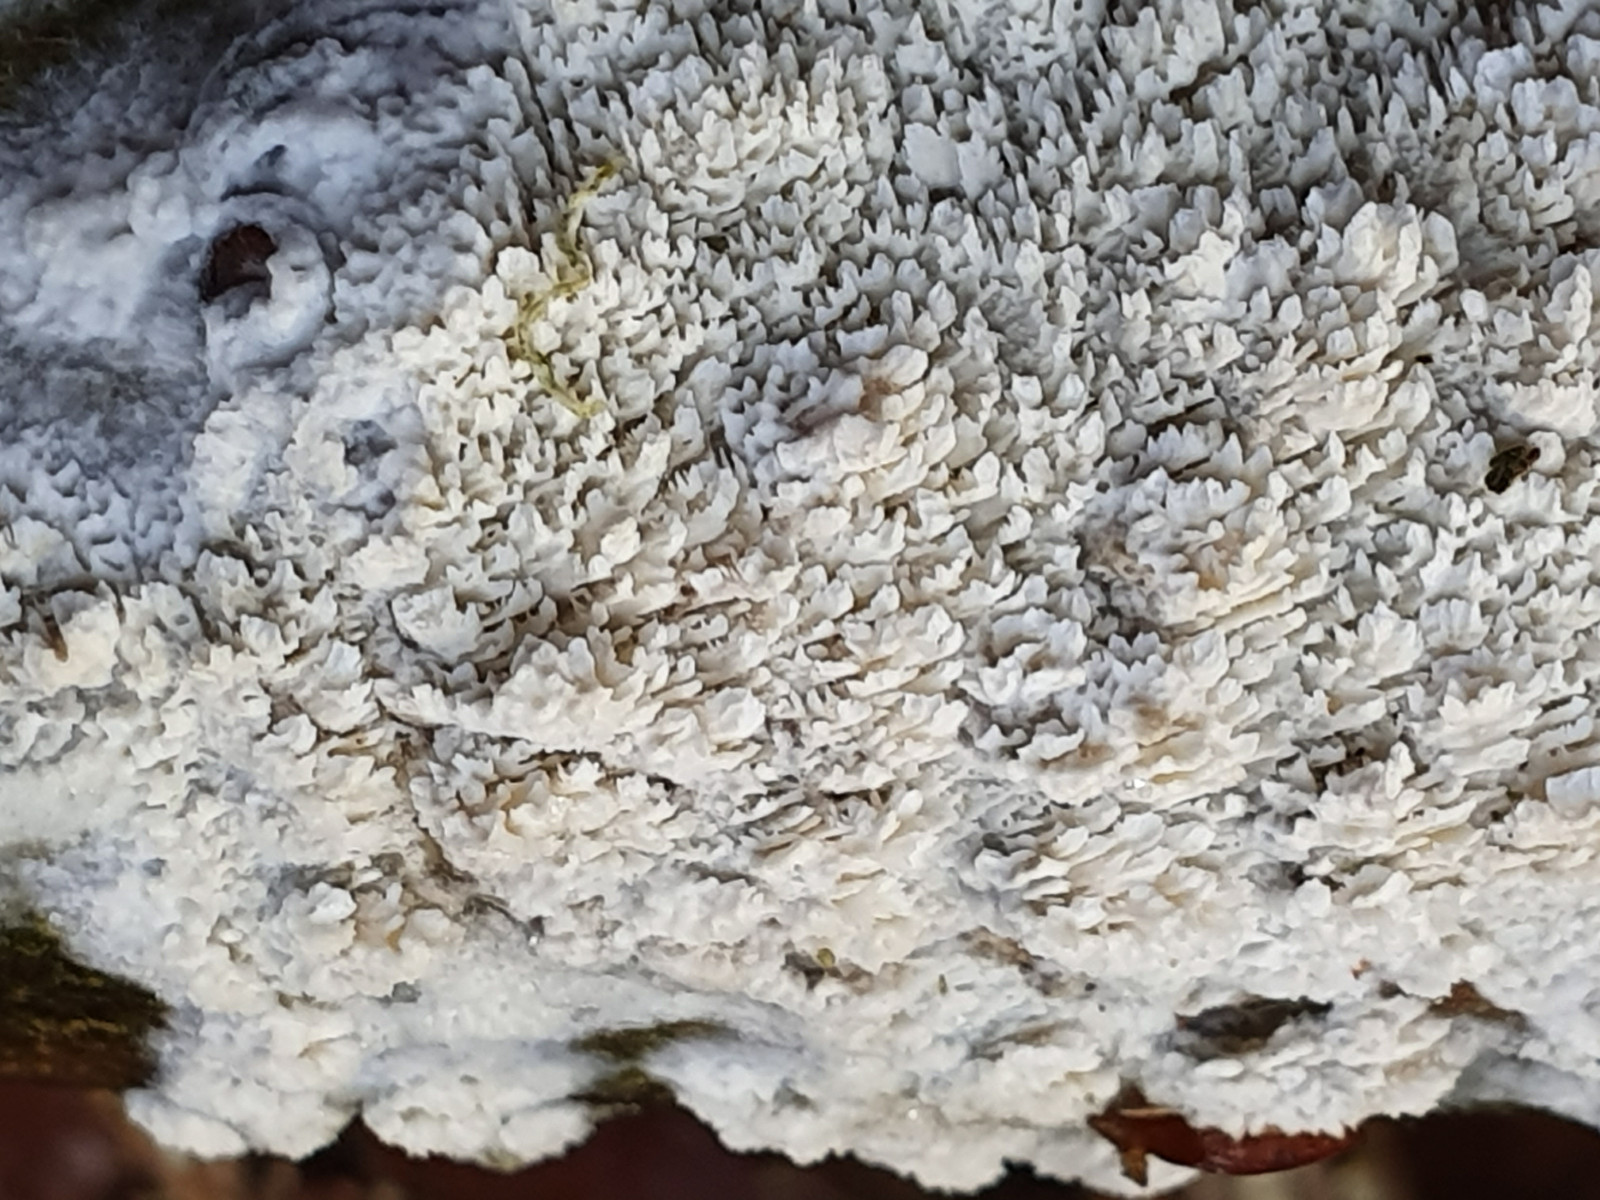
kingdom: Fungi
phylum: Basidiomycota
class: Agaricomycetes
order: Hymenochaetales
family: Schizoporaceae
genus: Schizopora
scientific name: Schizopora paradoxa
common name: hvid tandsvamp
